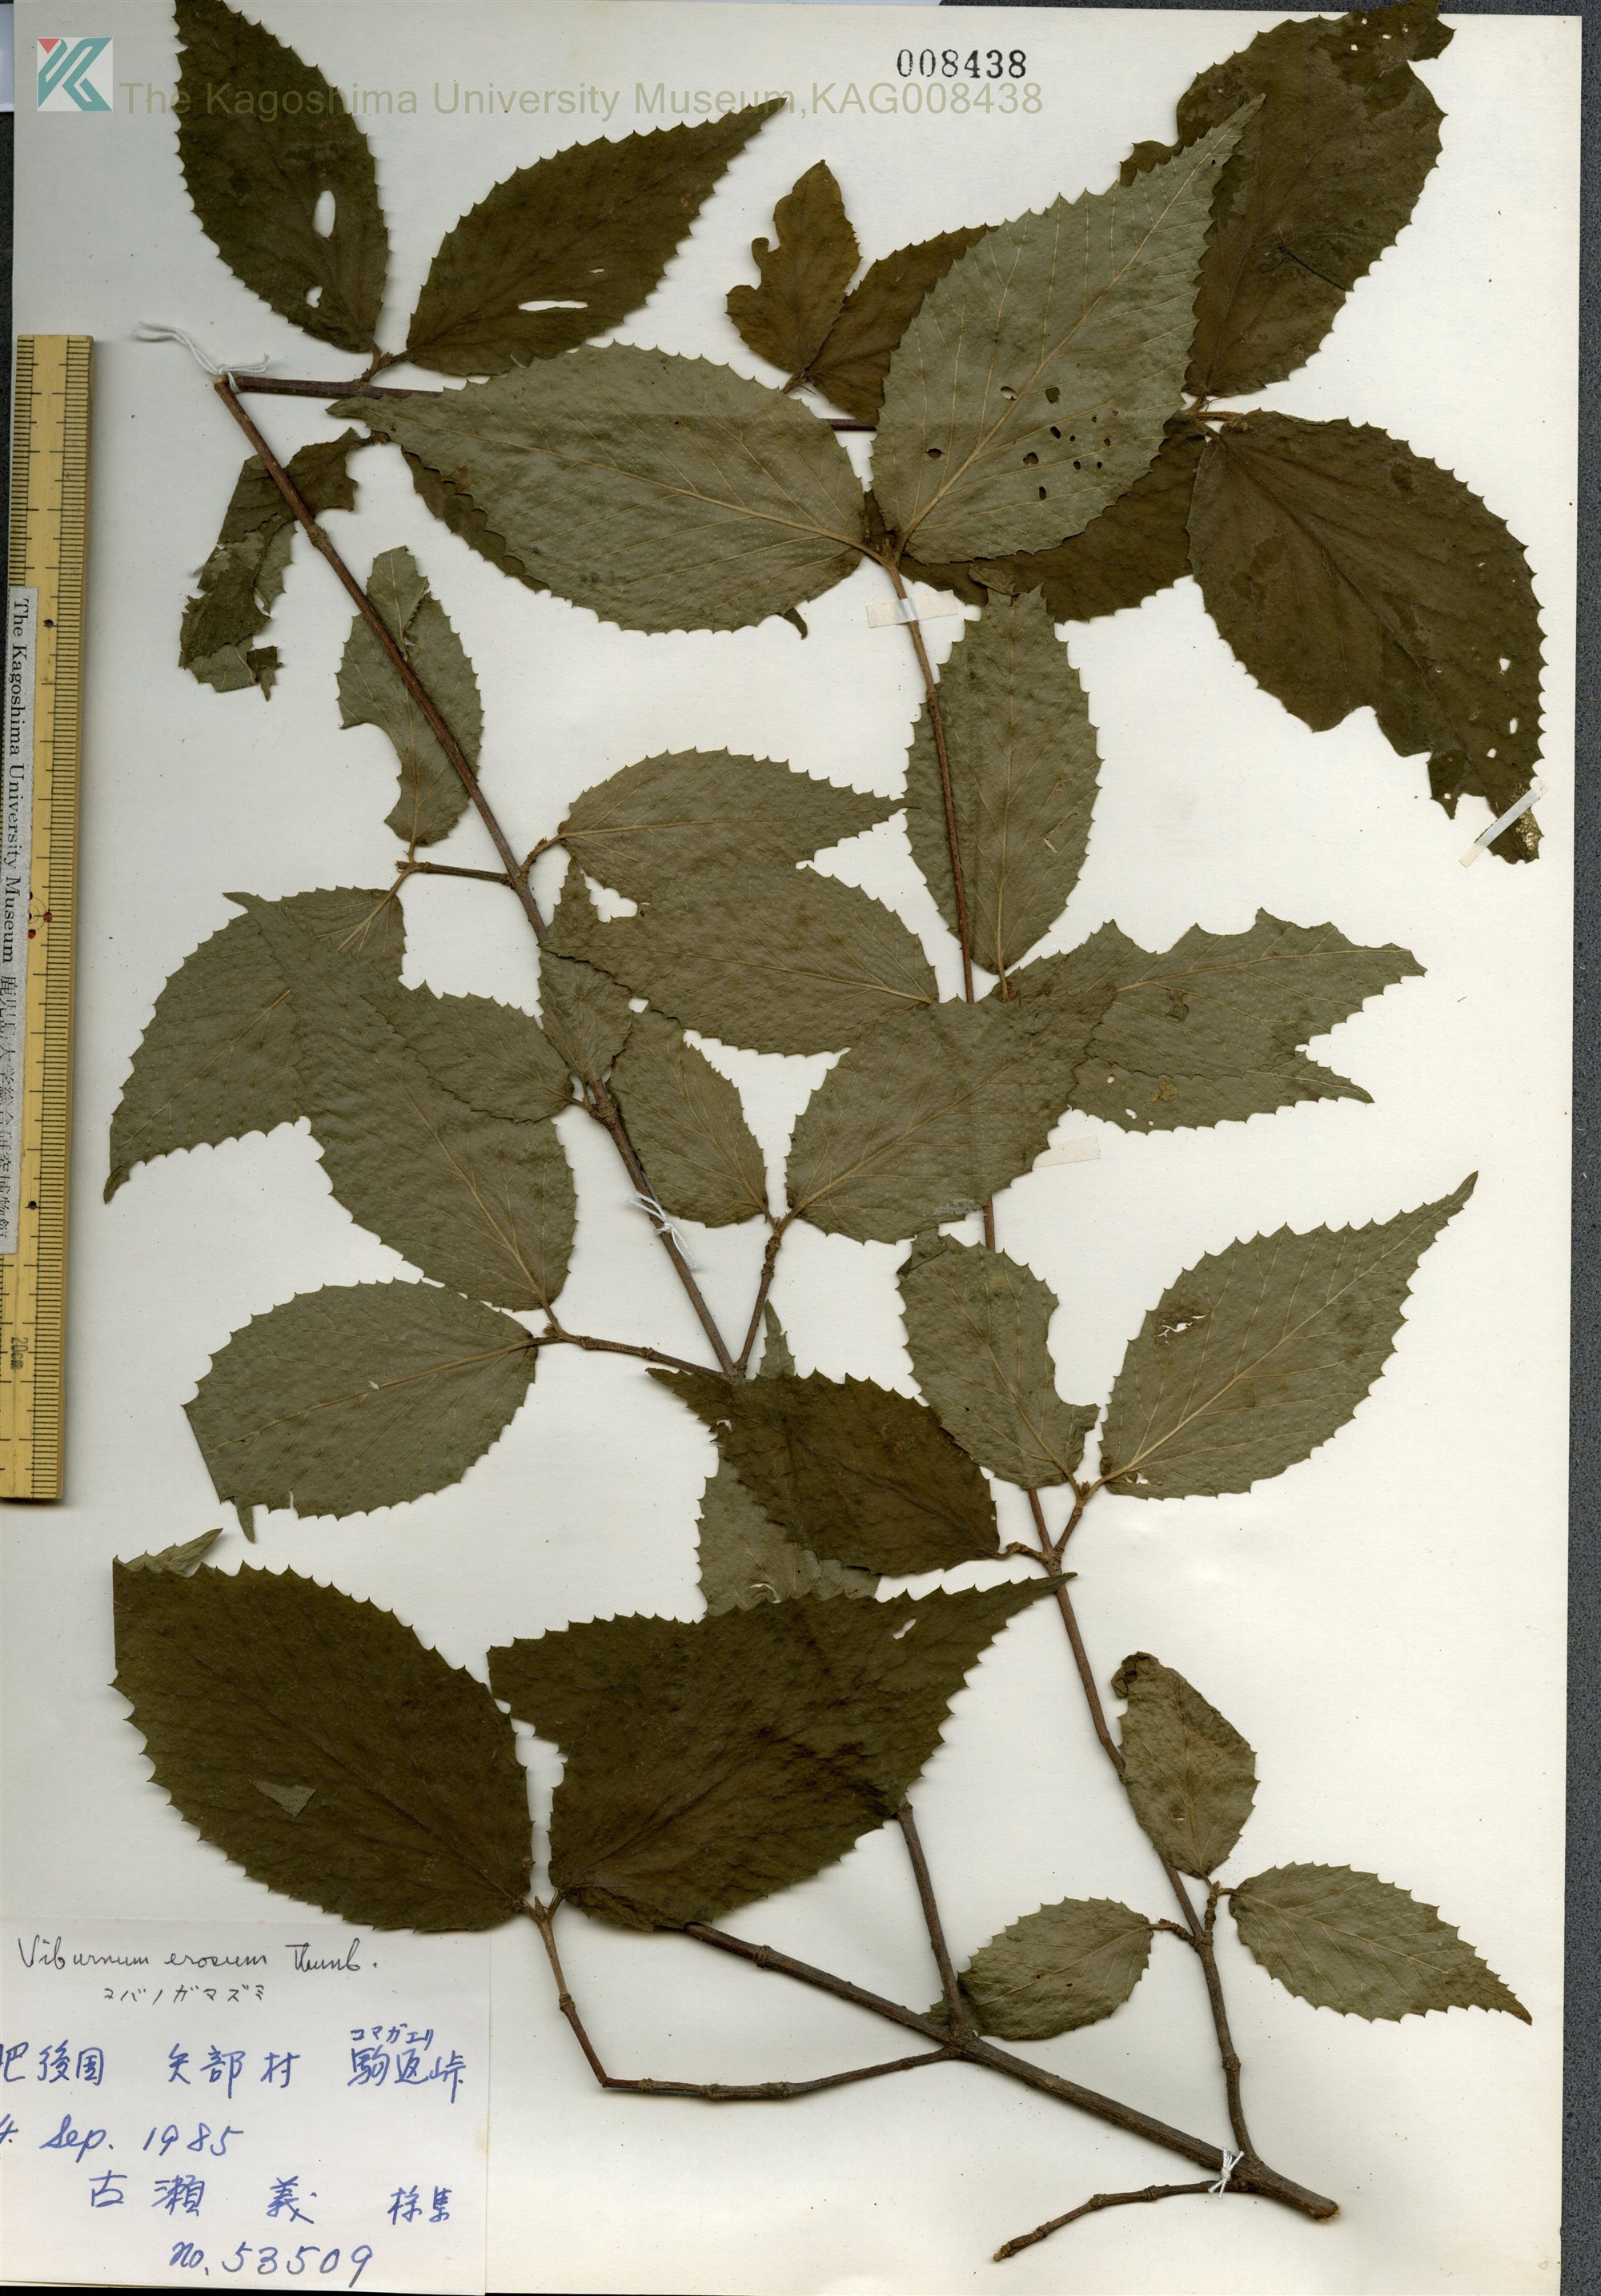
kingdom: Plantae
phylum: Tracheophyta
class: Magnoliopsida
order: Dipsacales
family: Viburnaceae
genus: Viburnum
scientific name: Viburnum erosum
